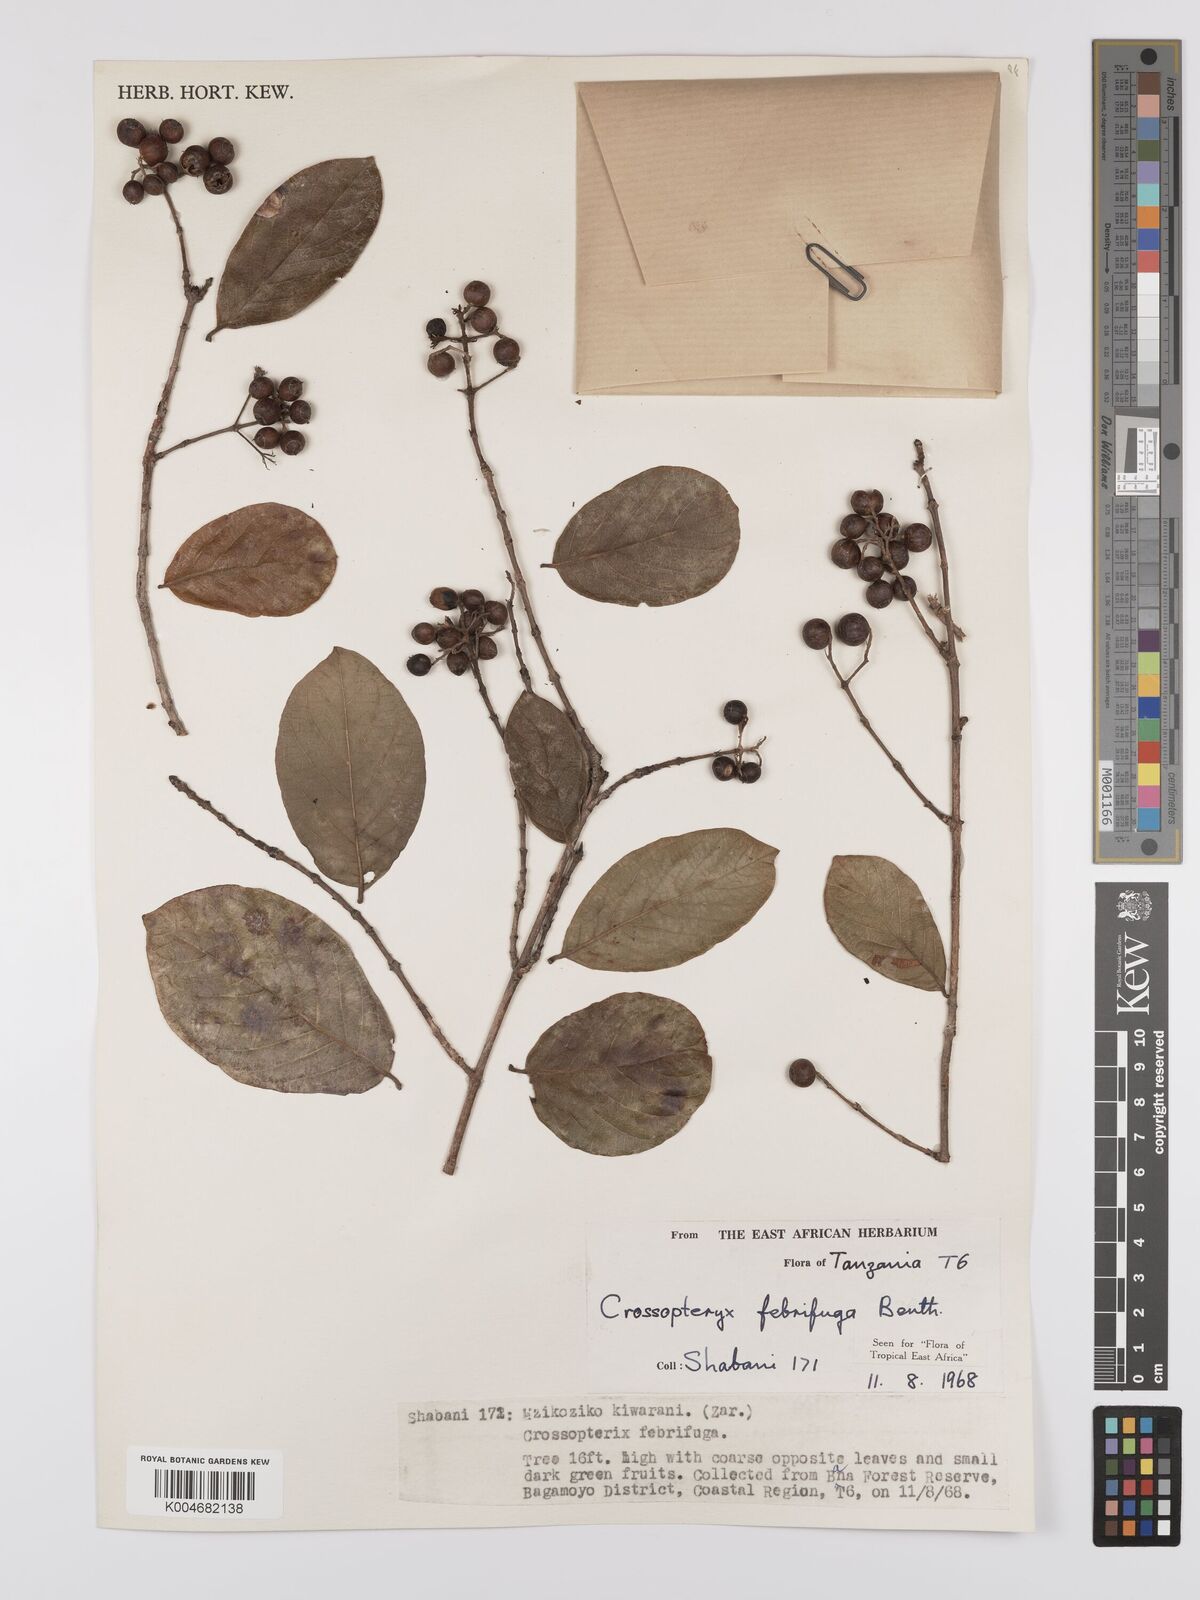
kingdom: Plantae
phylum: Tracheophyta
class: Magnoliopsida
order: Gentianales
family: Rubiaceae
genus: Crossopteryx
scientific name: Crossopteryx febrifuga
